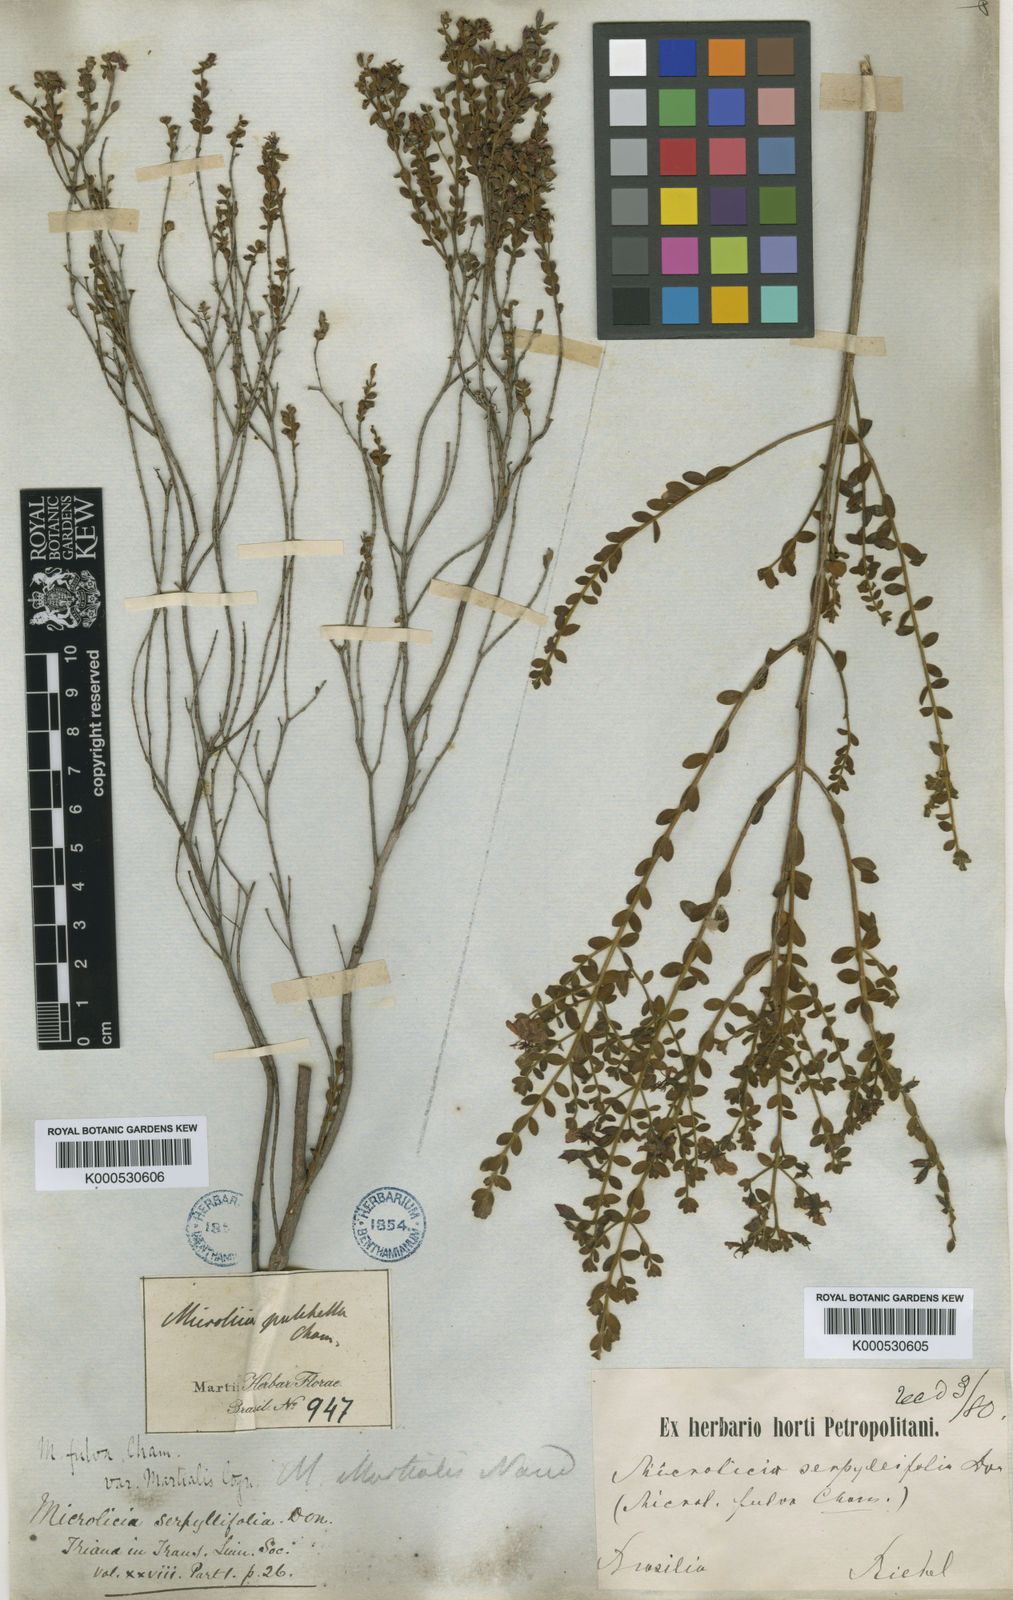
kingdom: Plantae
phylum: Tracheophyta
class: Magnoliopsida
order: Myrtales
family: Melastomataceae
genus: Microlicia
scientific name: Microlicia fulva
